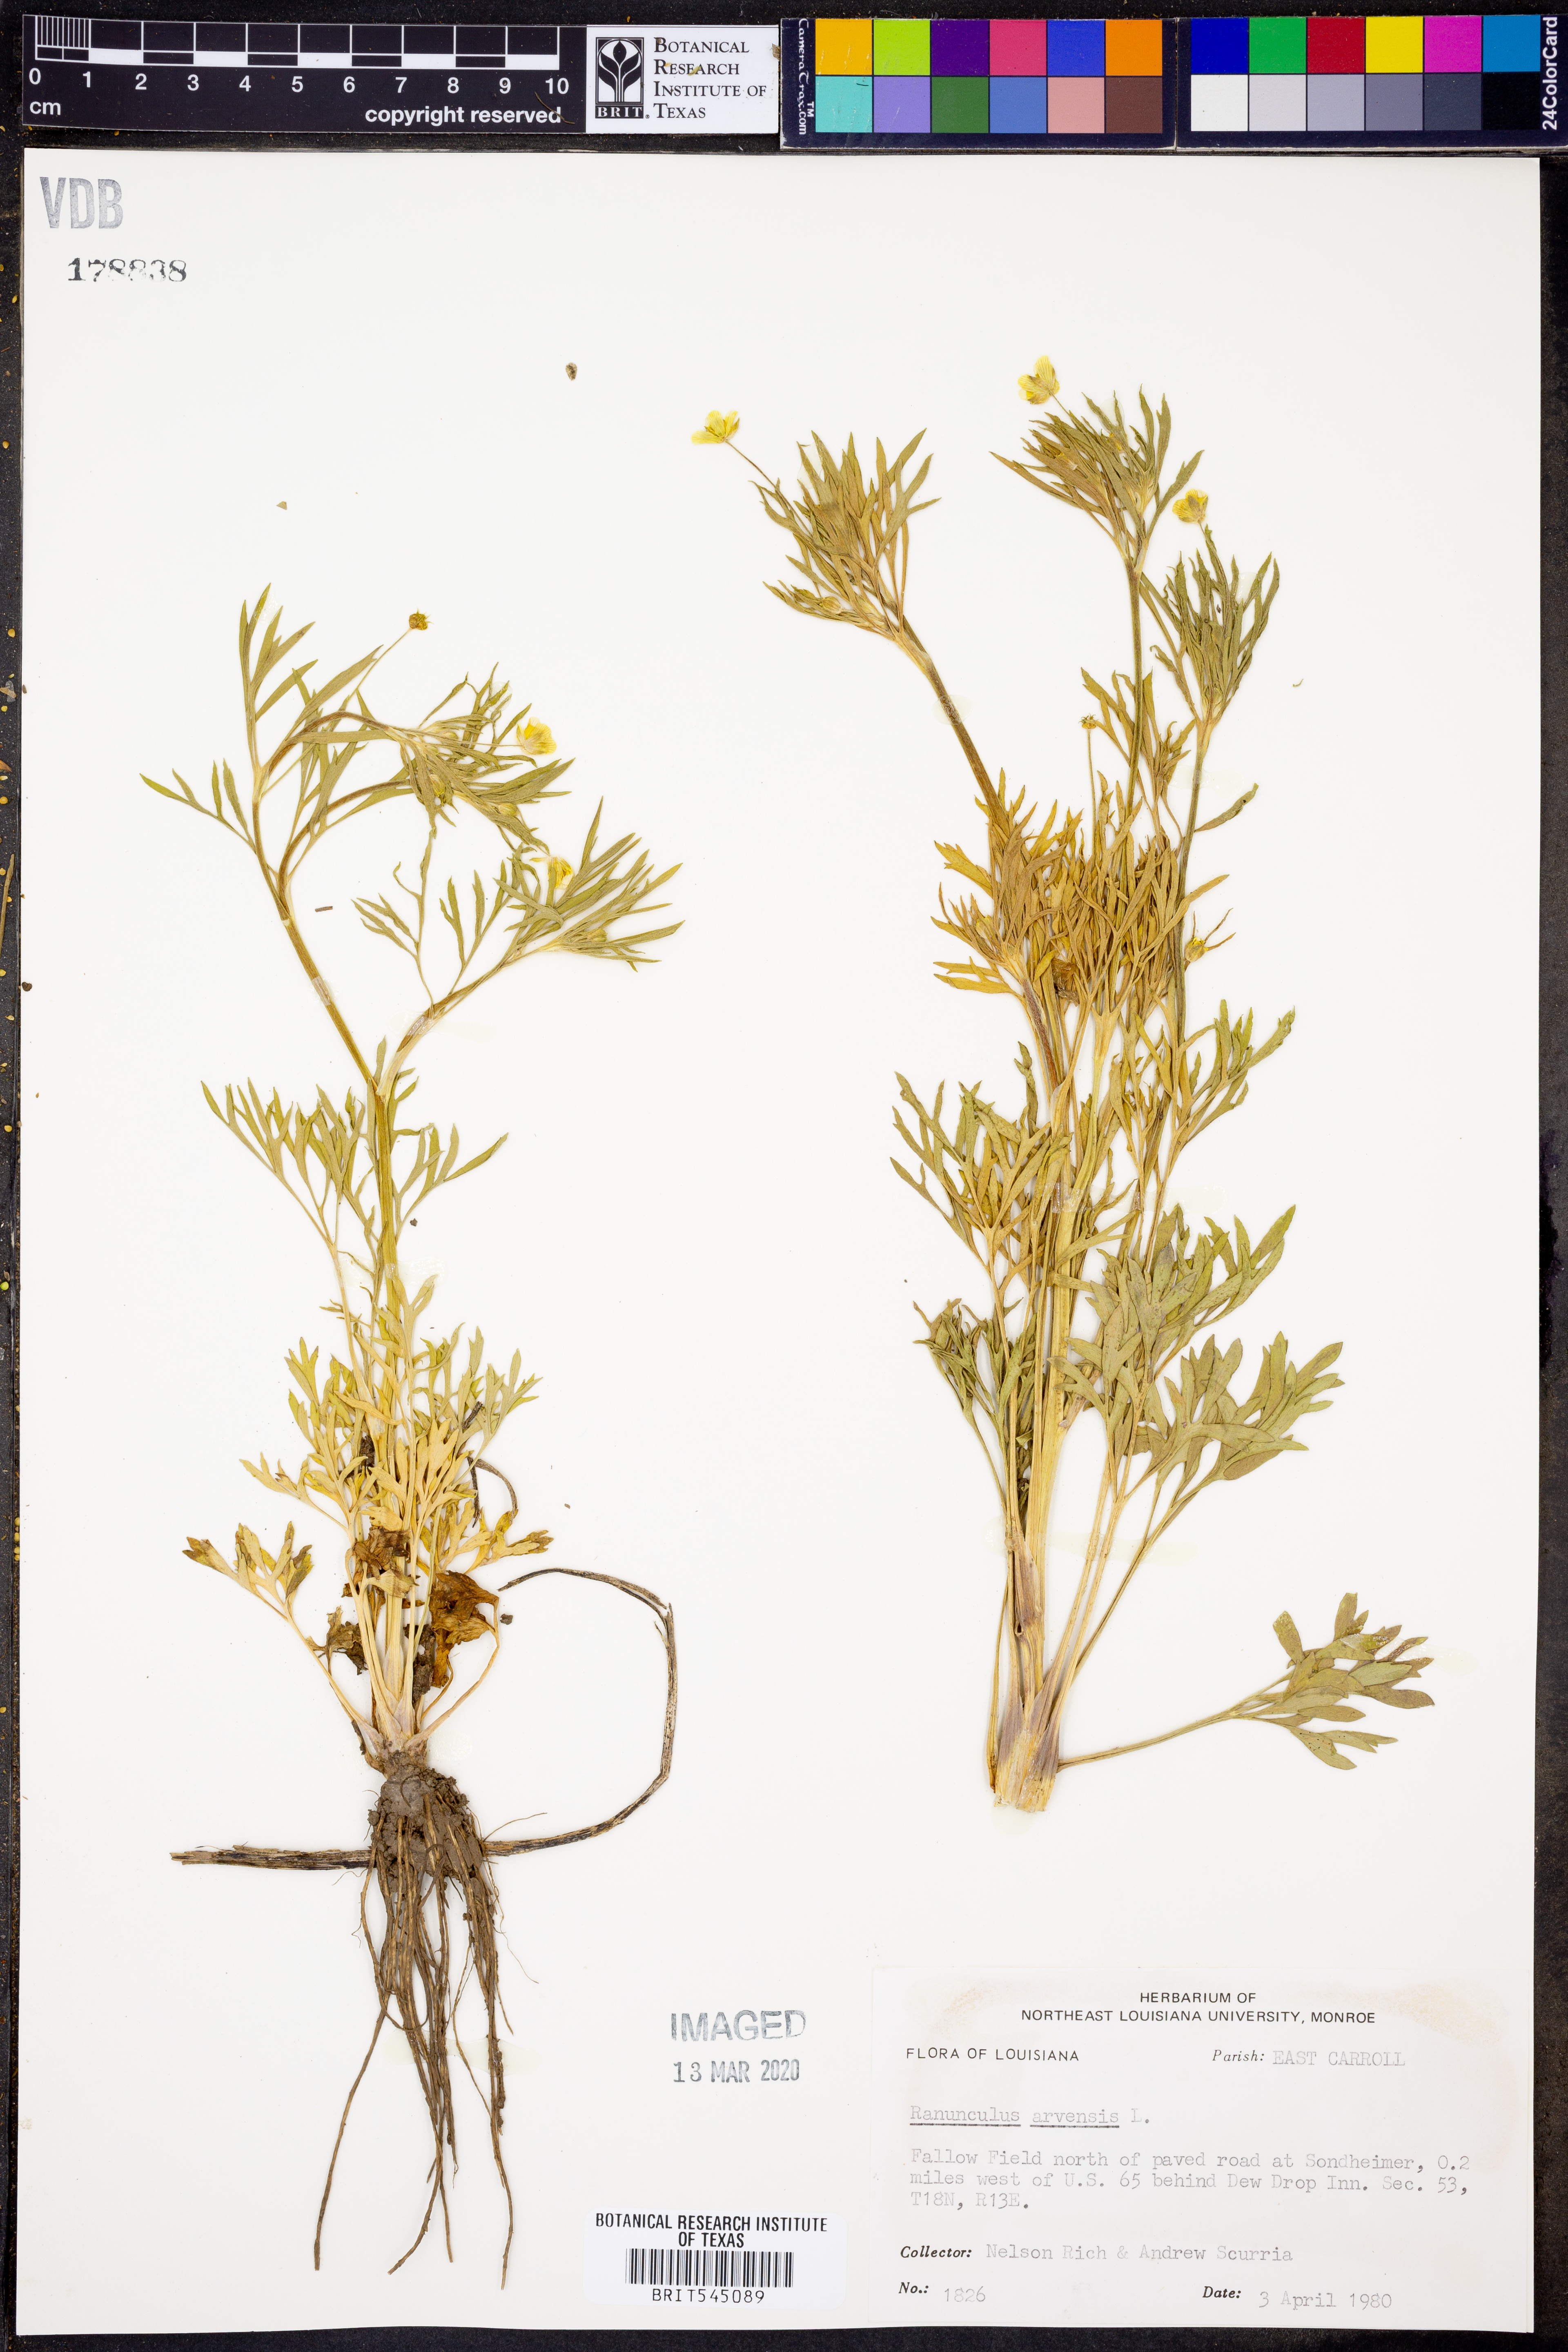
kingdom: Plantae
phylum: Tracheophyta
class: Magnoliopsida
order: Ranunculales
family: Ranunculaceae
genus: Ranunculus
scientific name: Ranunculus arvensis
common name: Corn buttercup
